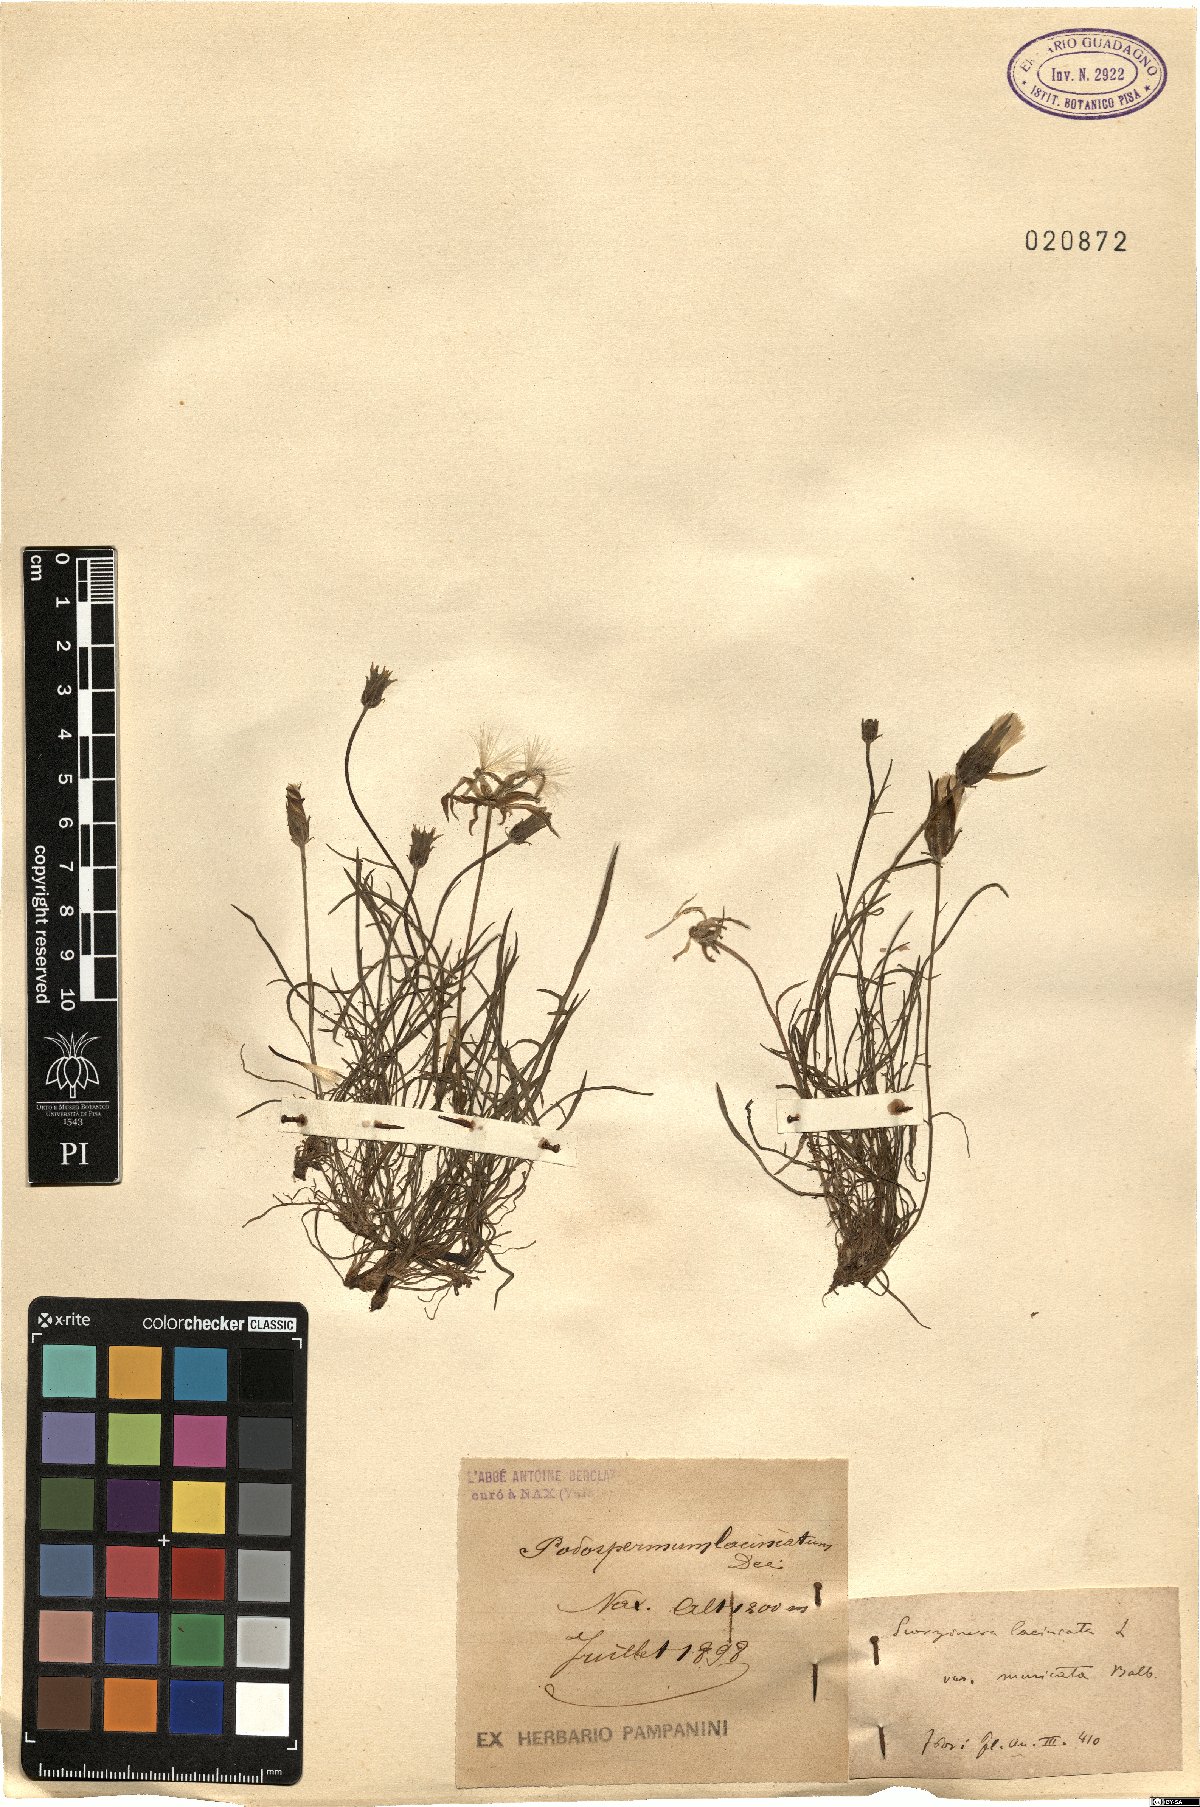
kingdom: Plantae
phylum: Tracheophyta
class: Magnoliopsida
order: Asterales
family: Asteraceae
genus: Scorzonera
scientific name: Scorzonera laciniata
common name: Cutleaf vipergrass
